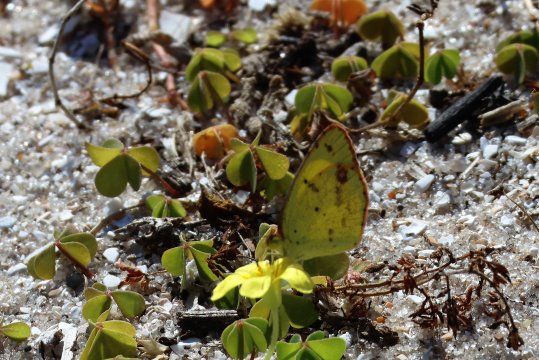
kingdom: Animalia
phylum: Arthropoda
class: Insecta
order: Lepidoptera
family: Pieridae
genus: Pyrisitia
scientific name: Pyrisitia lisa
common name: Little Yellow
